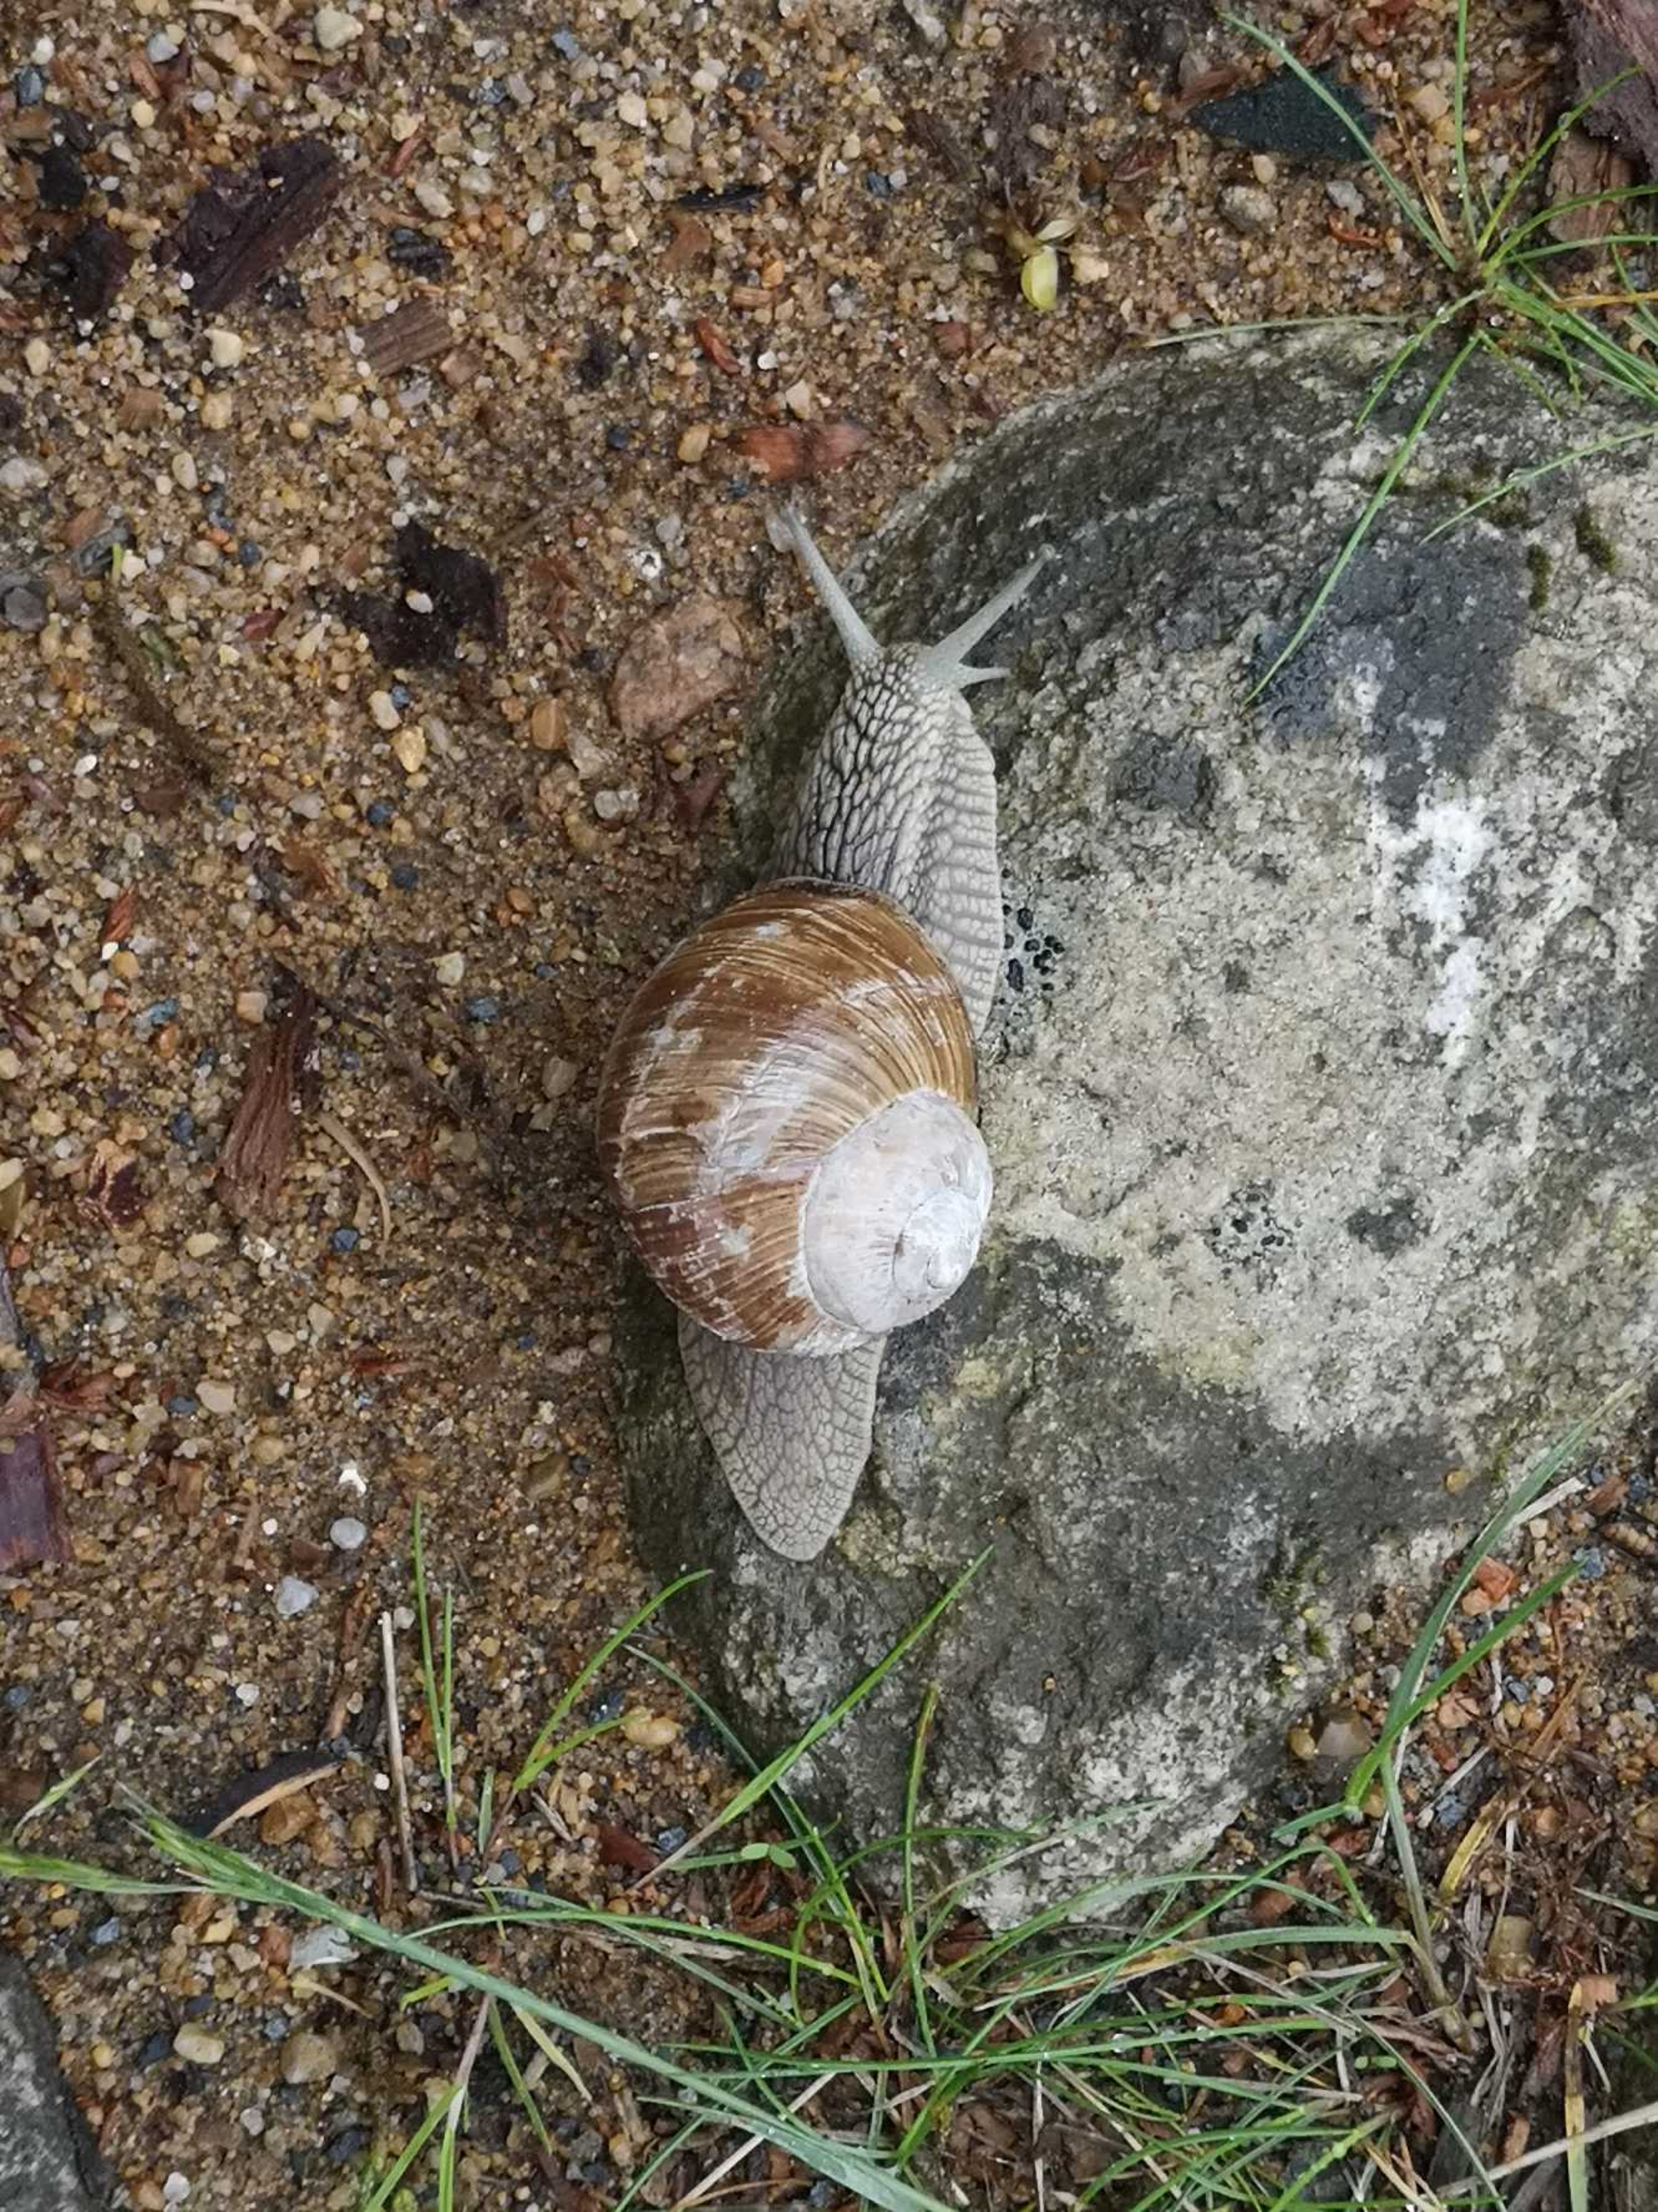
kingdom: Animalia
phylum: Mollusca
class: Gastropoda
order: Stylommatophora
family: Helicidae
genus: Helix
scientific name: Helix pomatia
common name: Vinbjergsnegl
